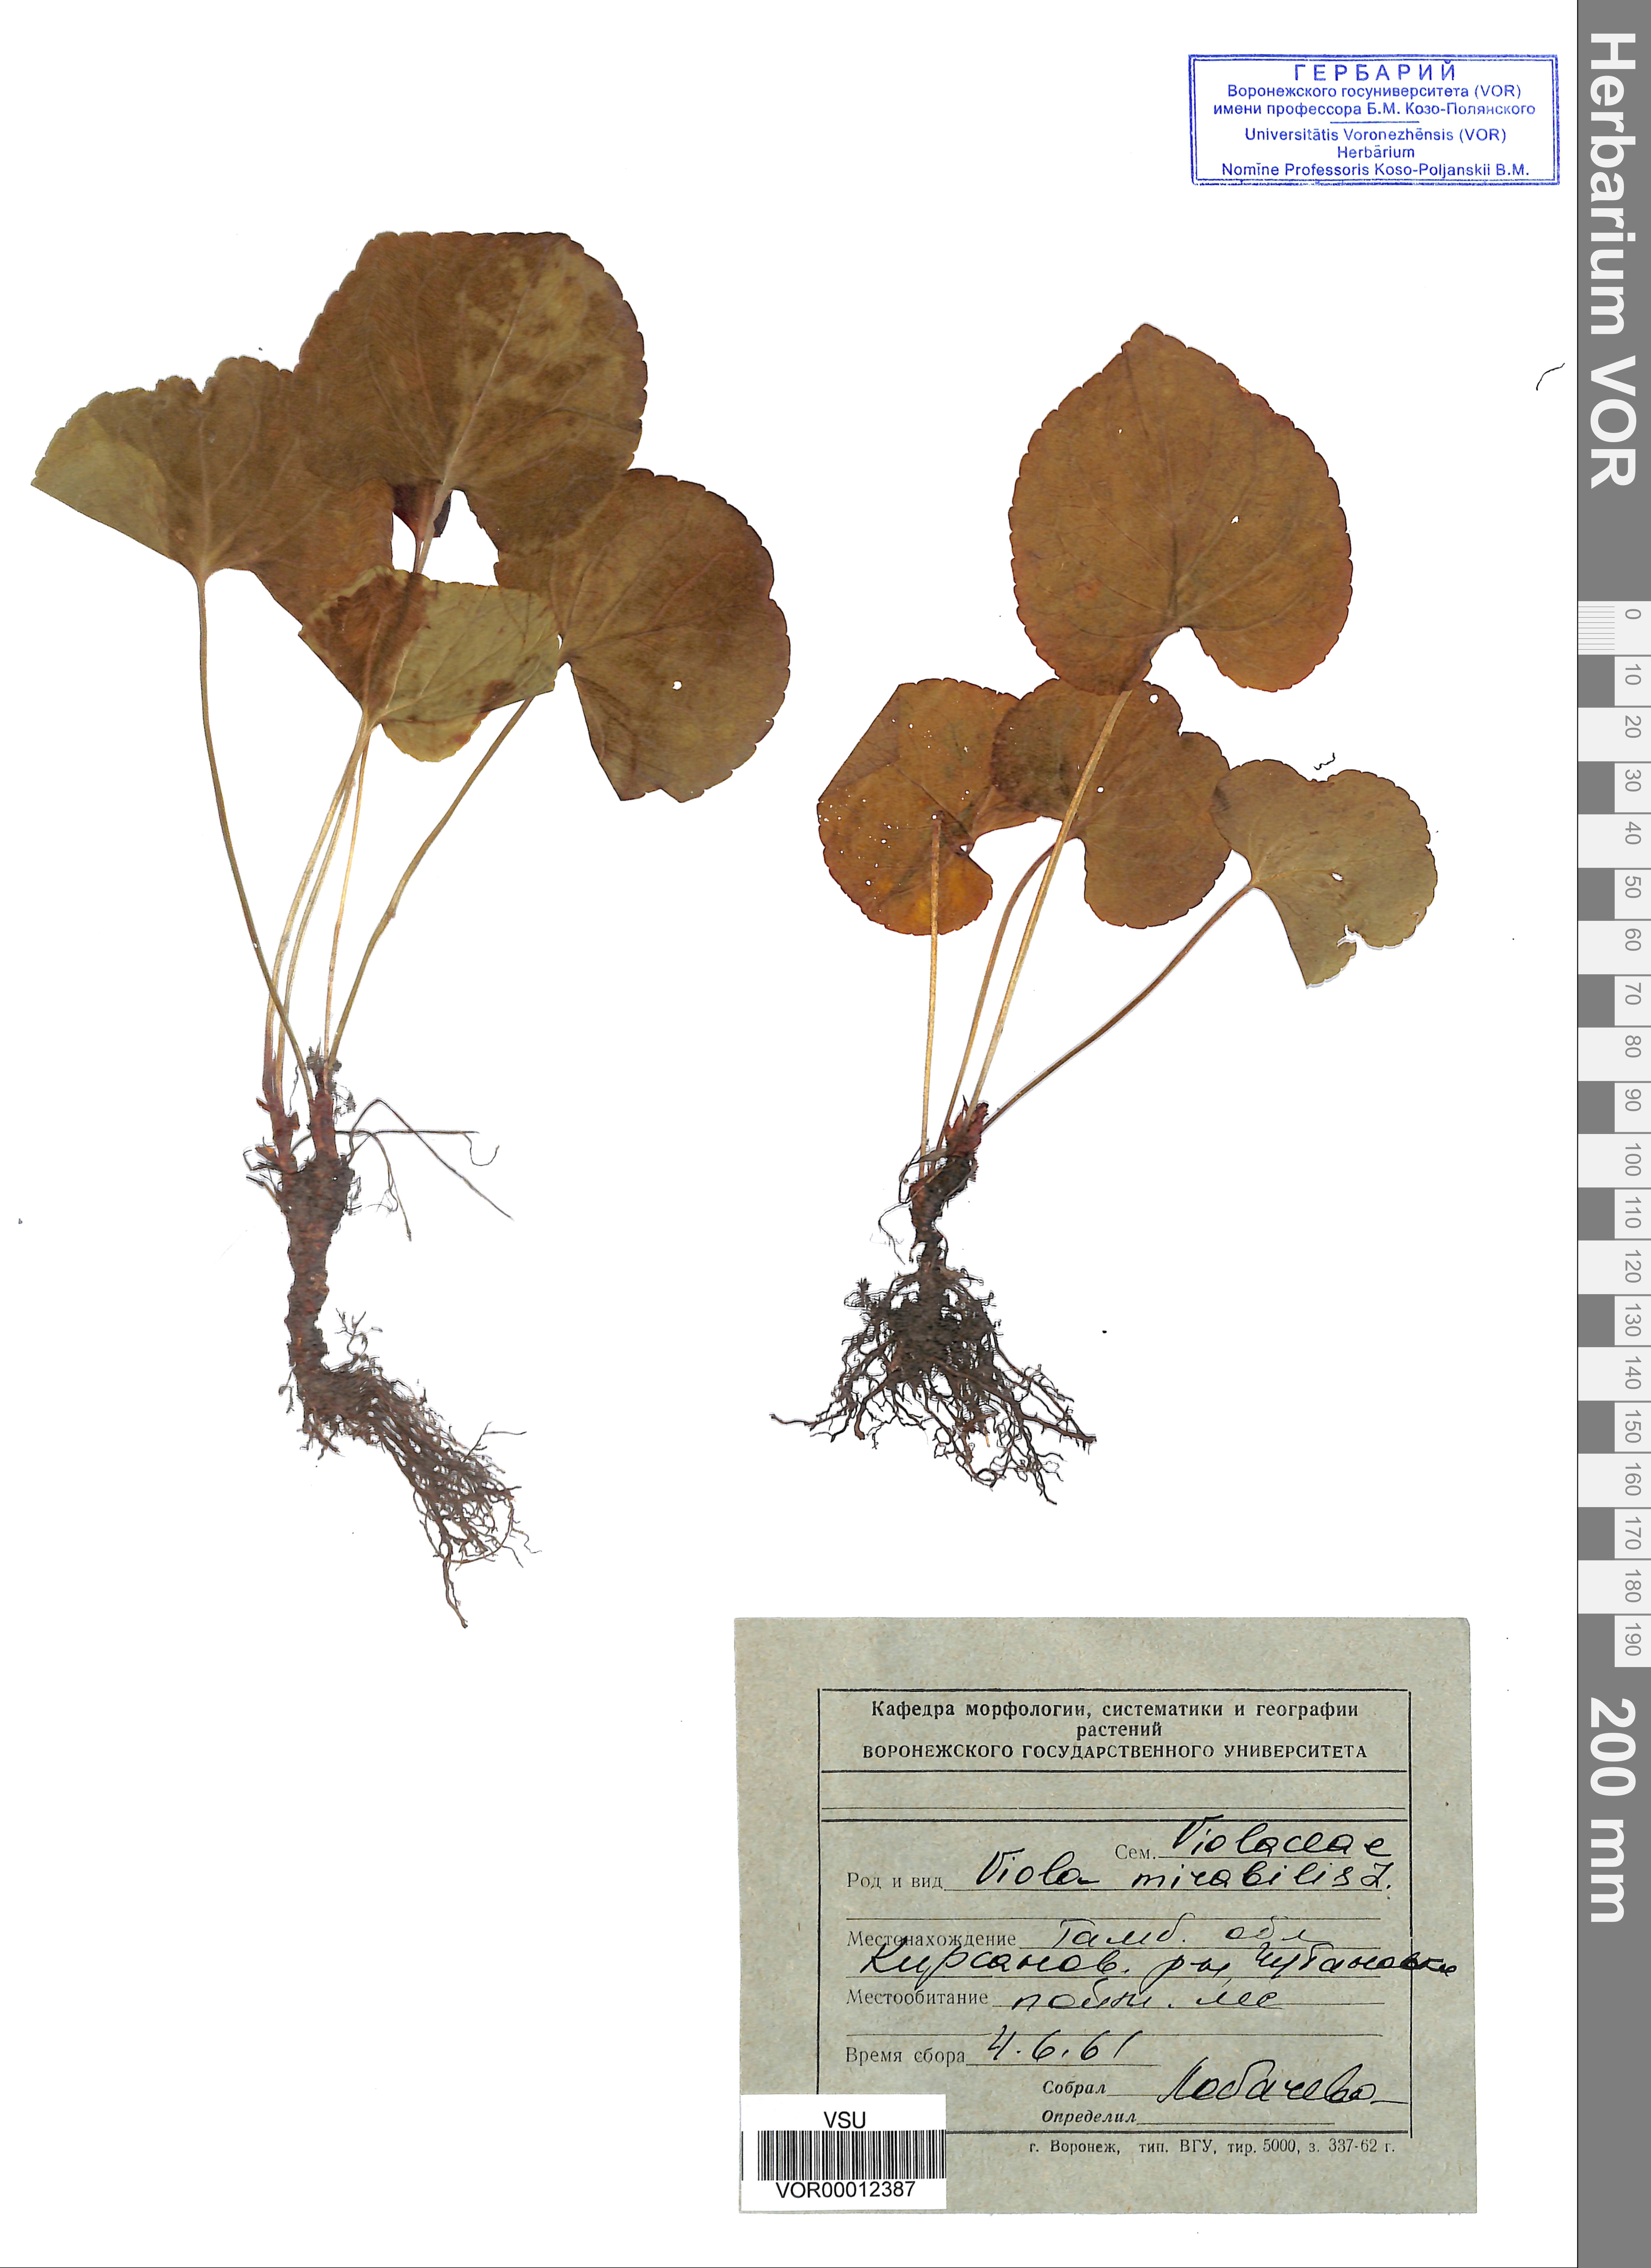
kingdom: Plantae
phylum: Tracheophyta
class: Magnoliopsida
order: Malpighiales
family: Violaceae
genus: Viola
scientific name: Viola mirabilis
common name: Wonder violet
